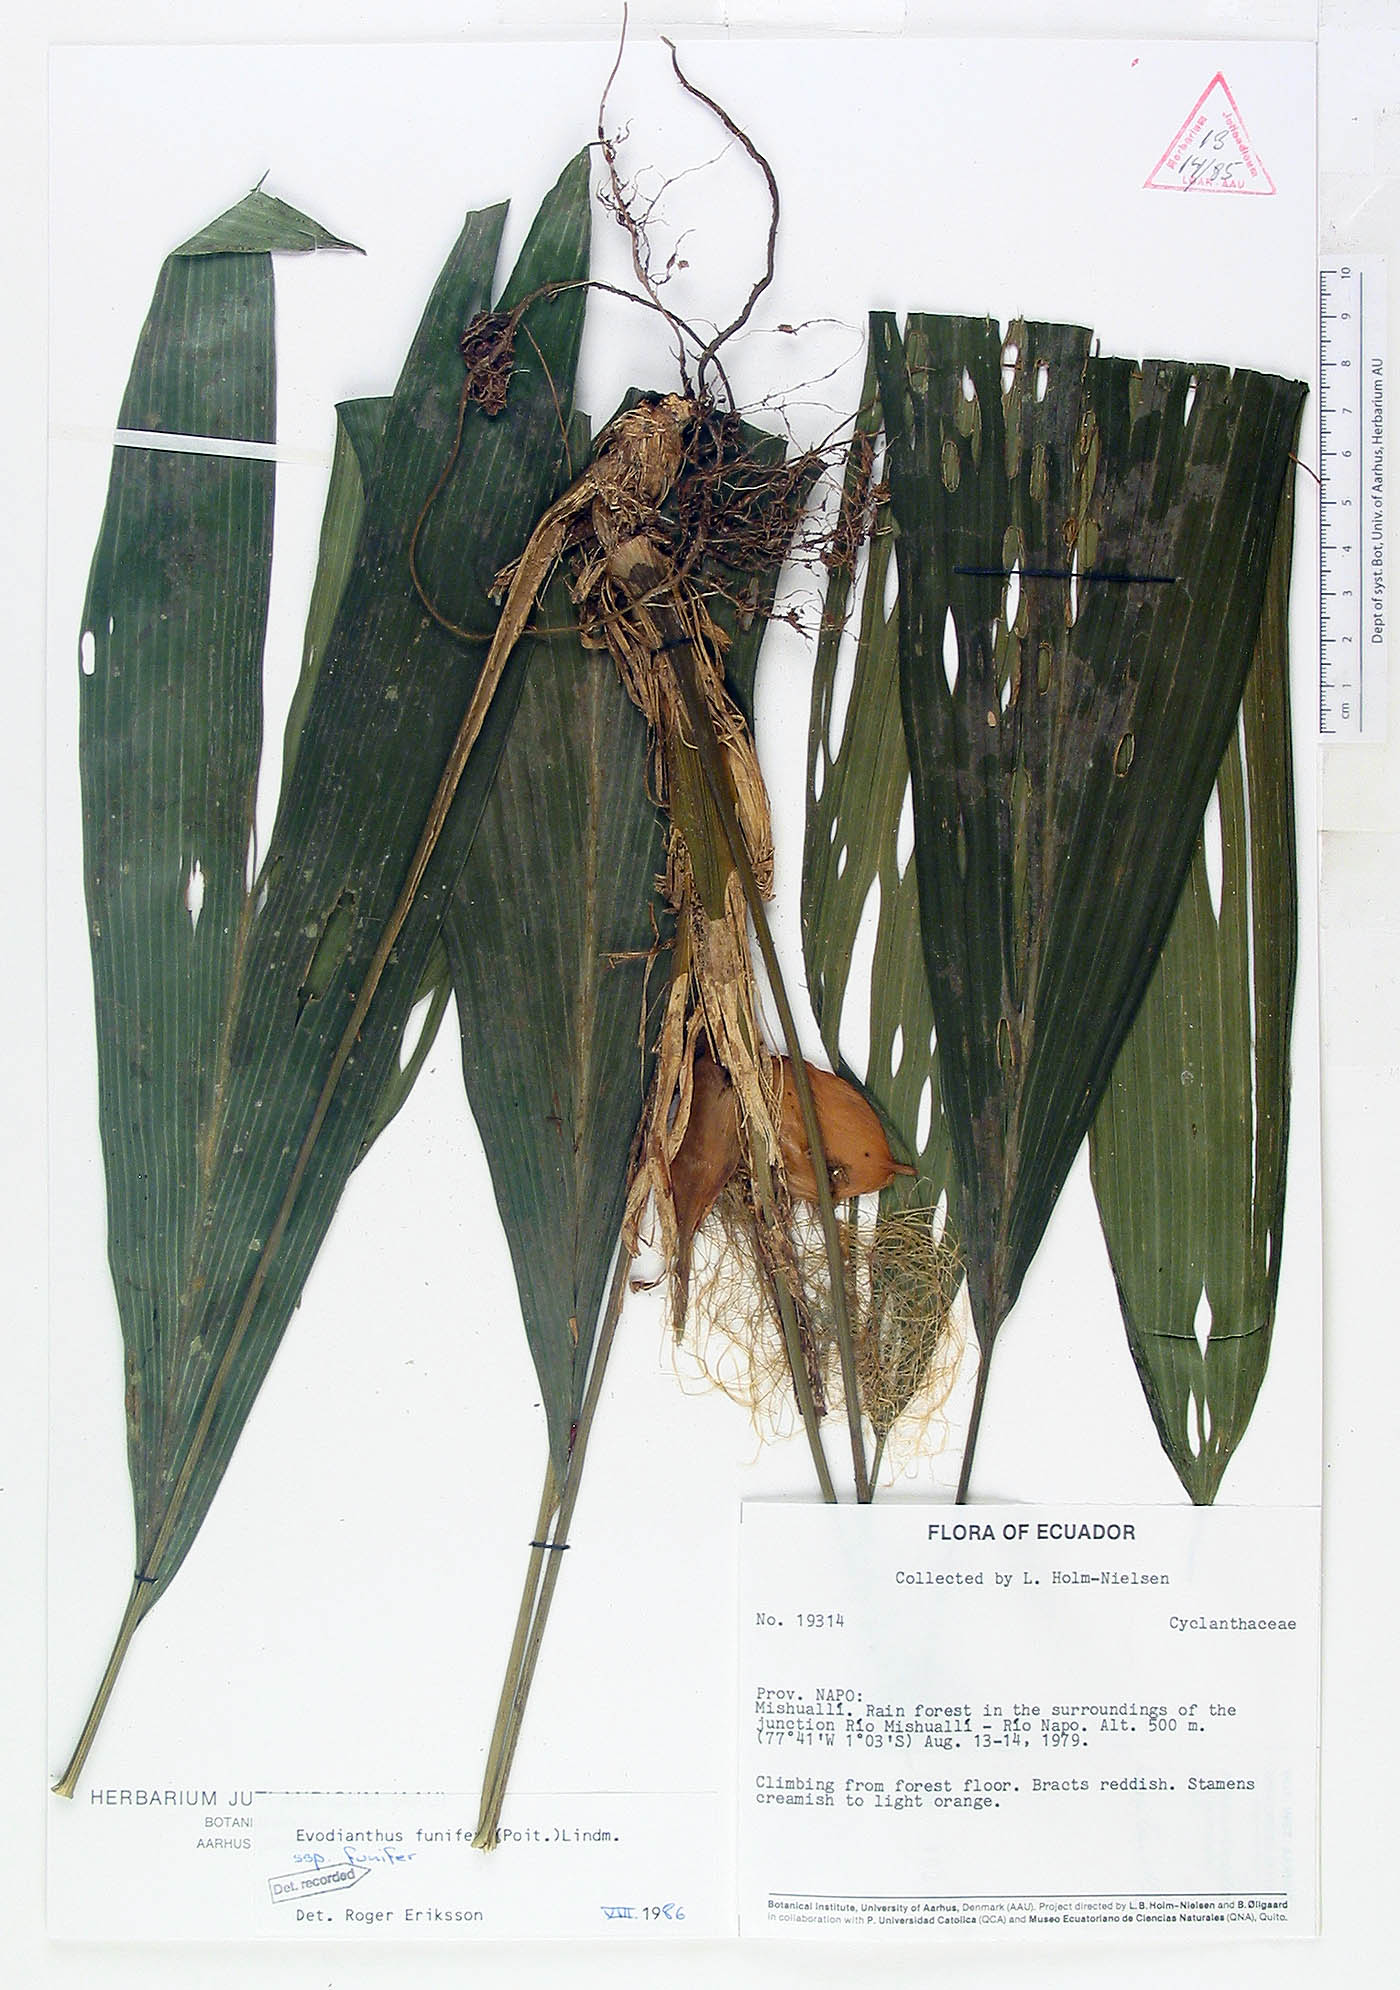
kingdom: Plantae
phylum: Tracheophyta
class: Liliopsida
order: Pandanales
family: Cyclanthaceae
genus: Evodianthus
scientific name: Evodianthus funifer
